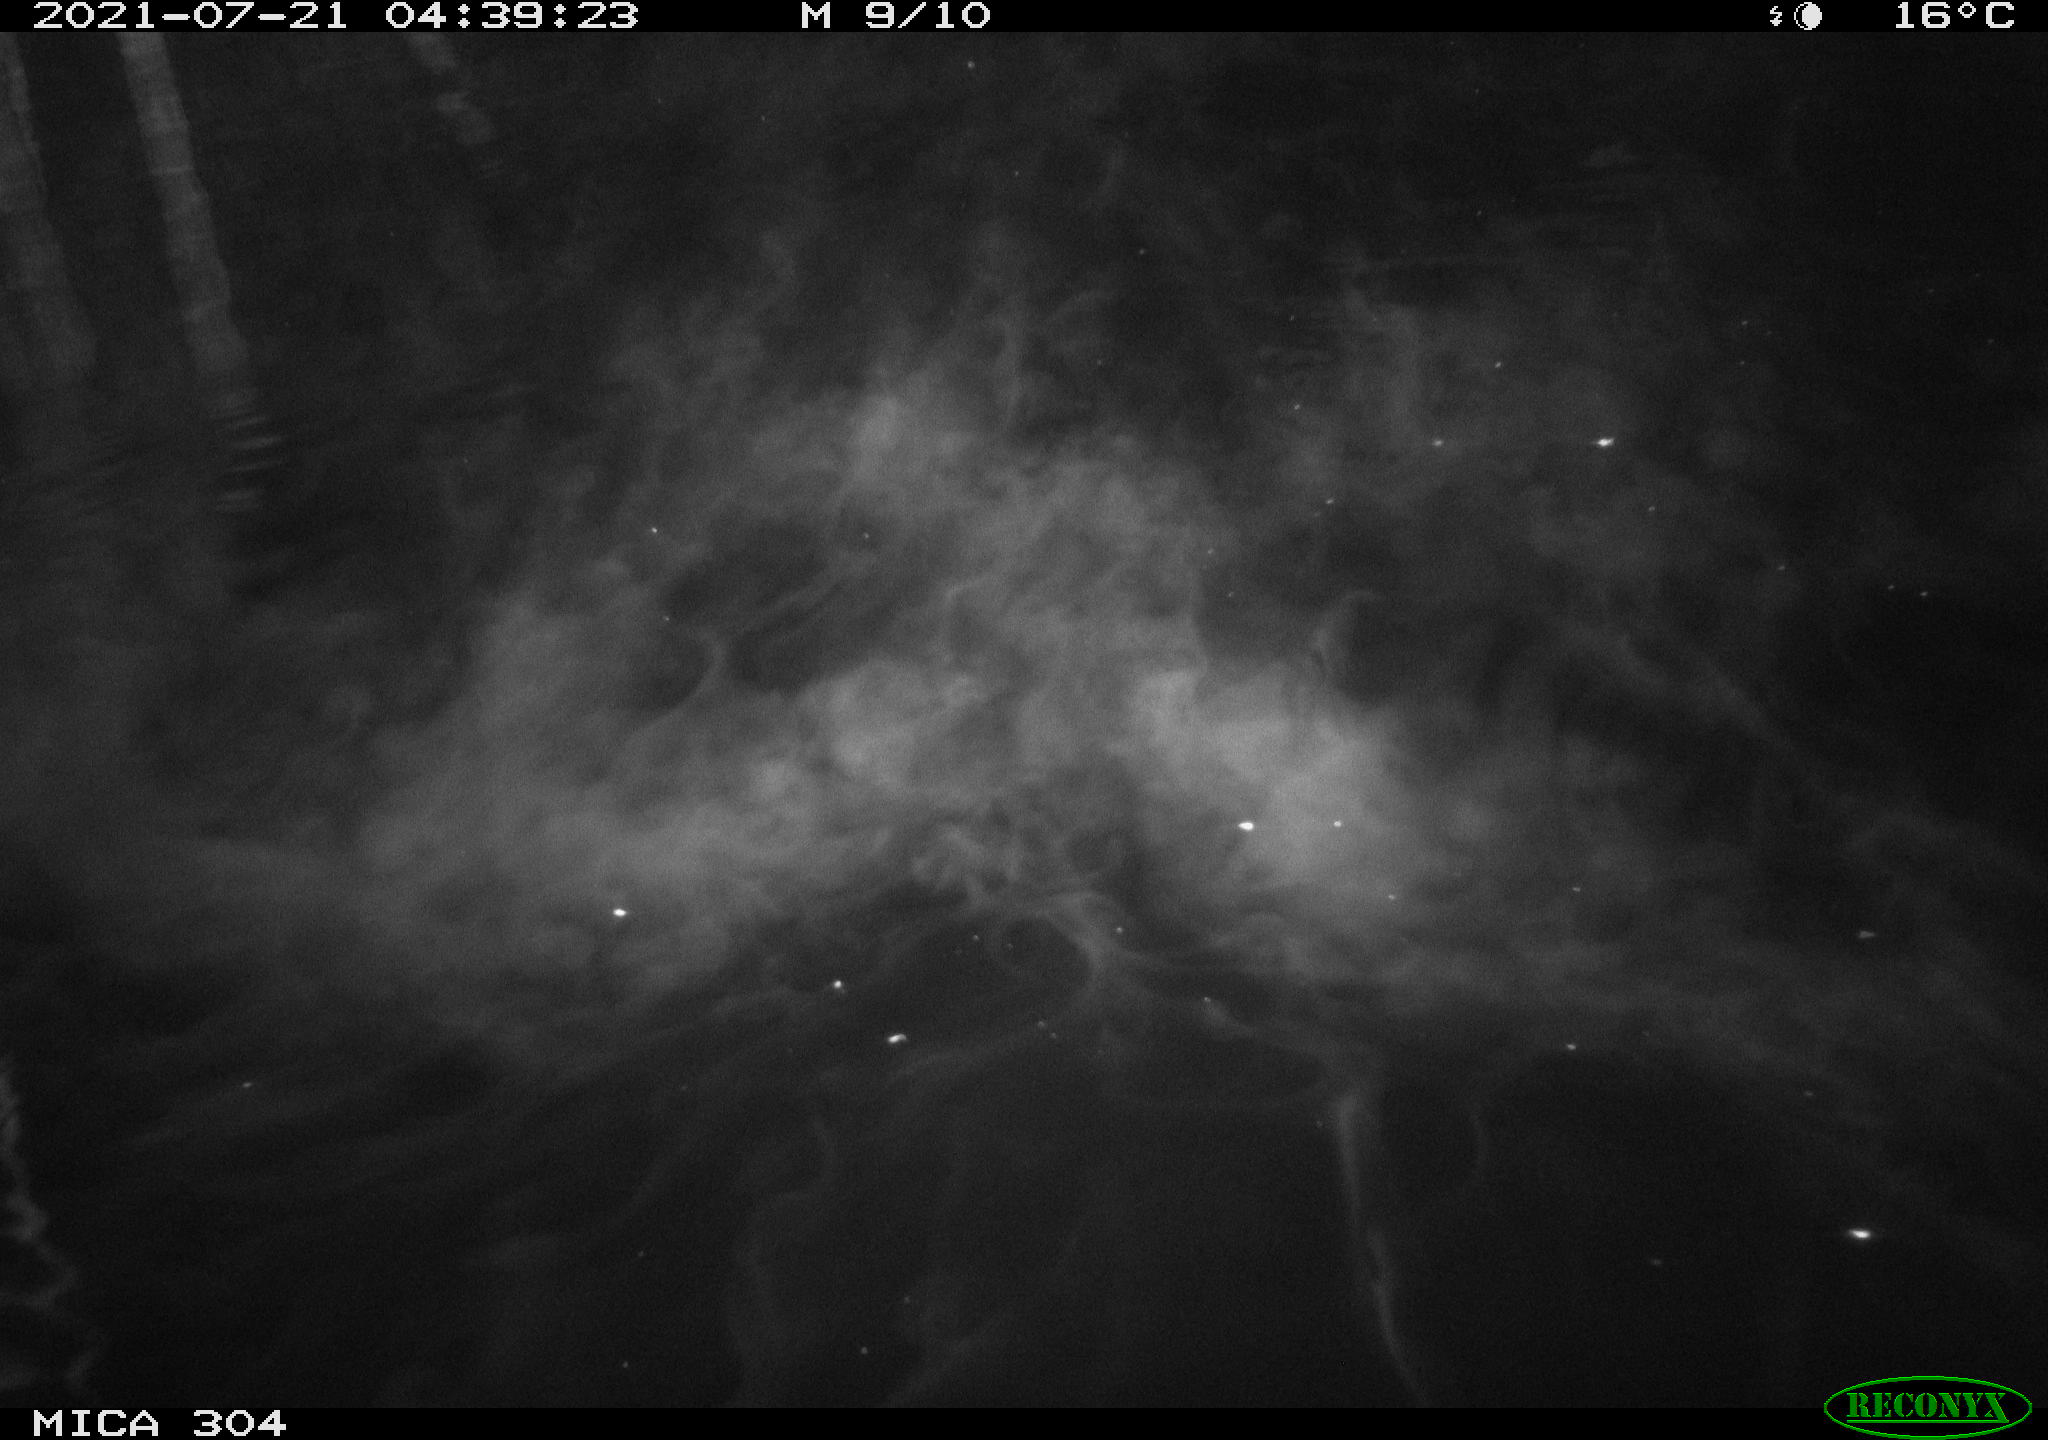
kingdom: Animalia
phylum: Chordata
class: Mammalia
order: Rodentia
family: Muridae
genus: Rattus
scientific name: Rattus norvegicus
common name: Brown rat
